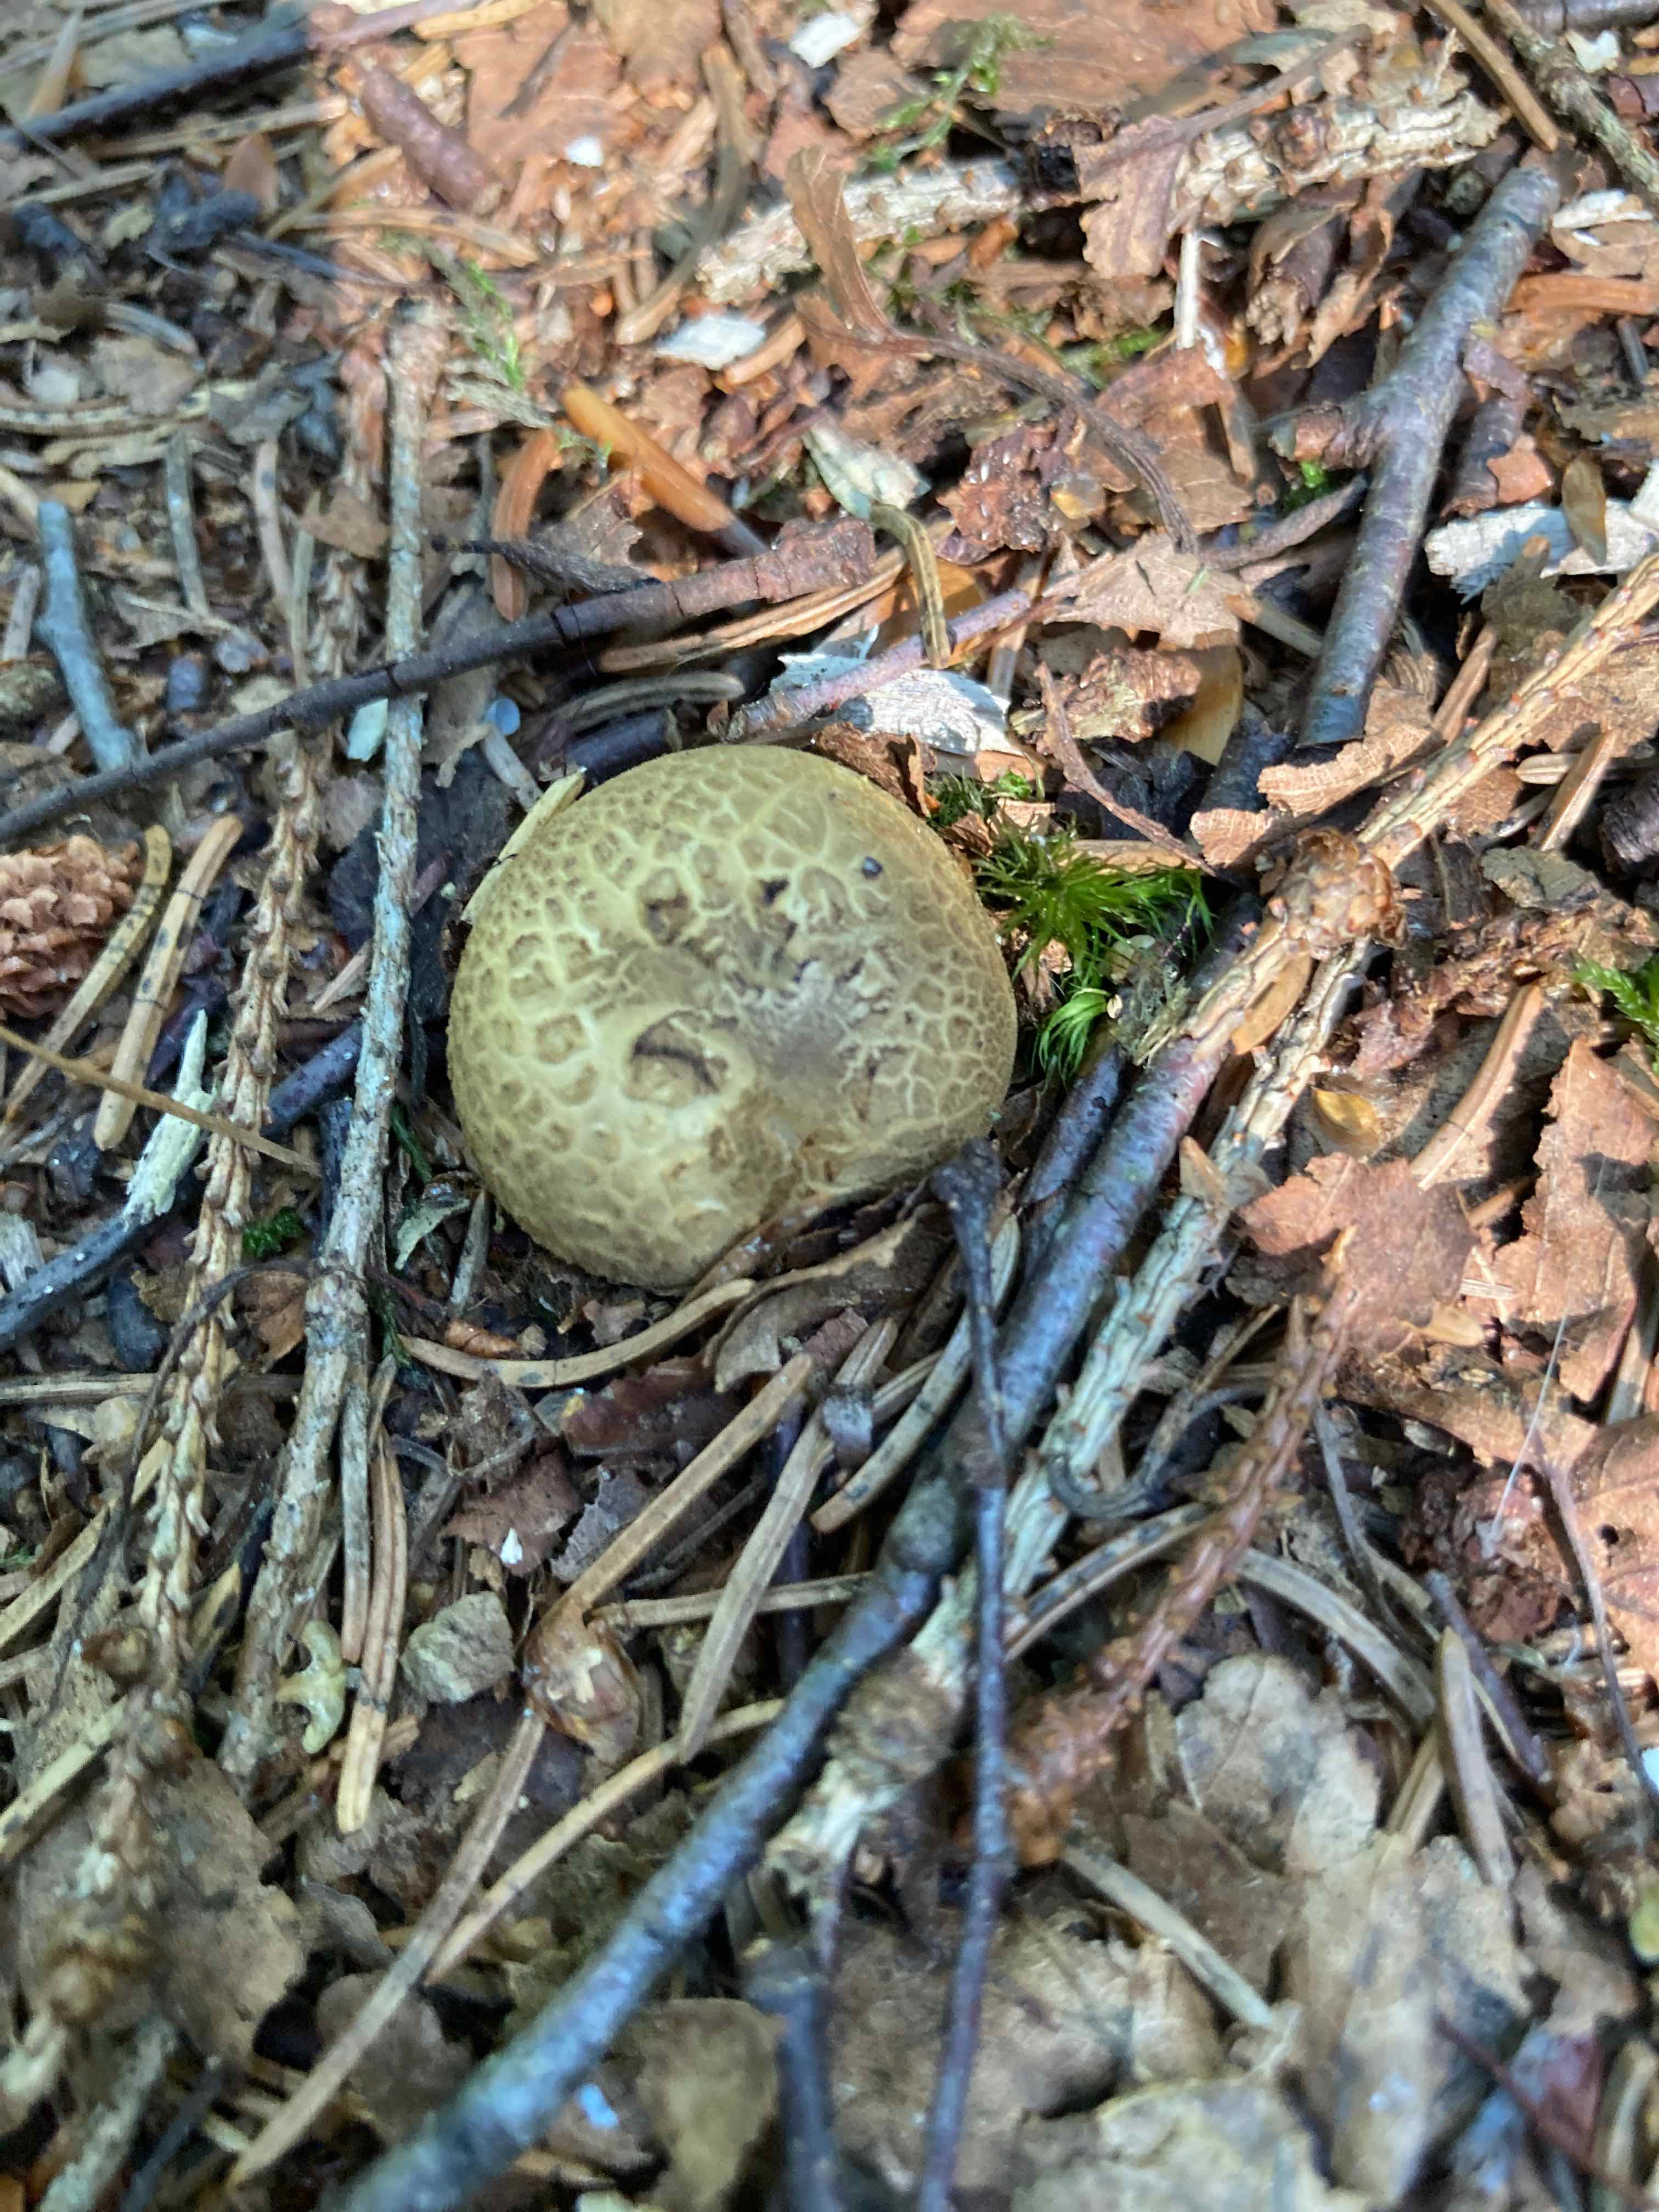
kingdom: Fungi
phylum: Basidiomycota
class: Agaricomycetes
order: Boletales
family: Sclerodermataceae
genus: Scleroderma
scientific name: Scleroderma citrinum
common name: almindelig bruskbold
